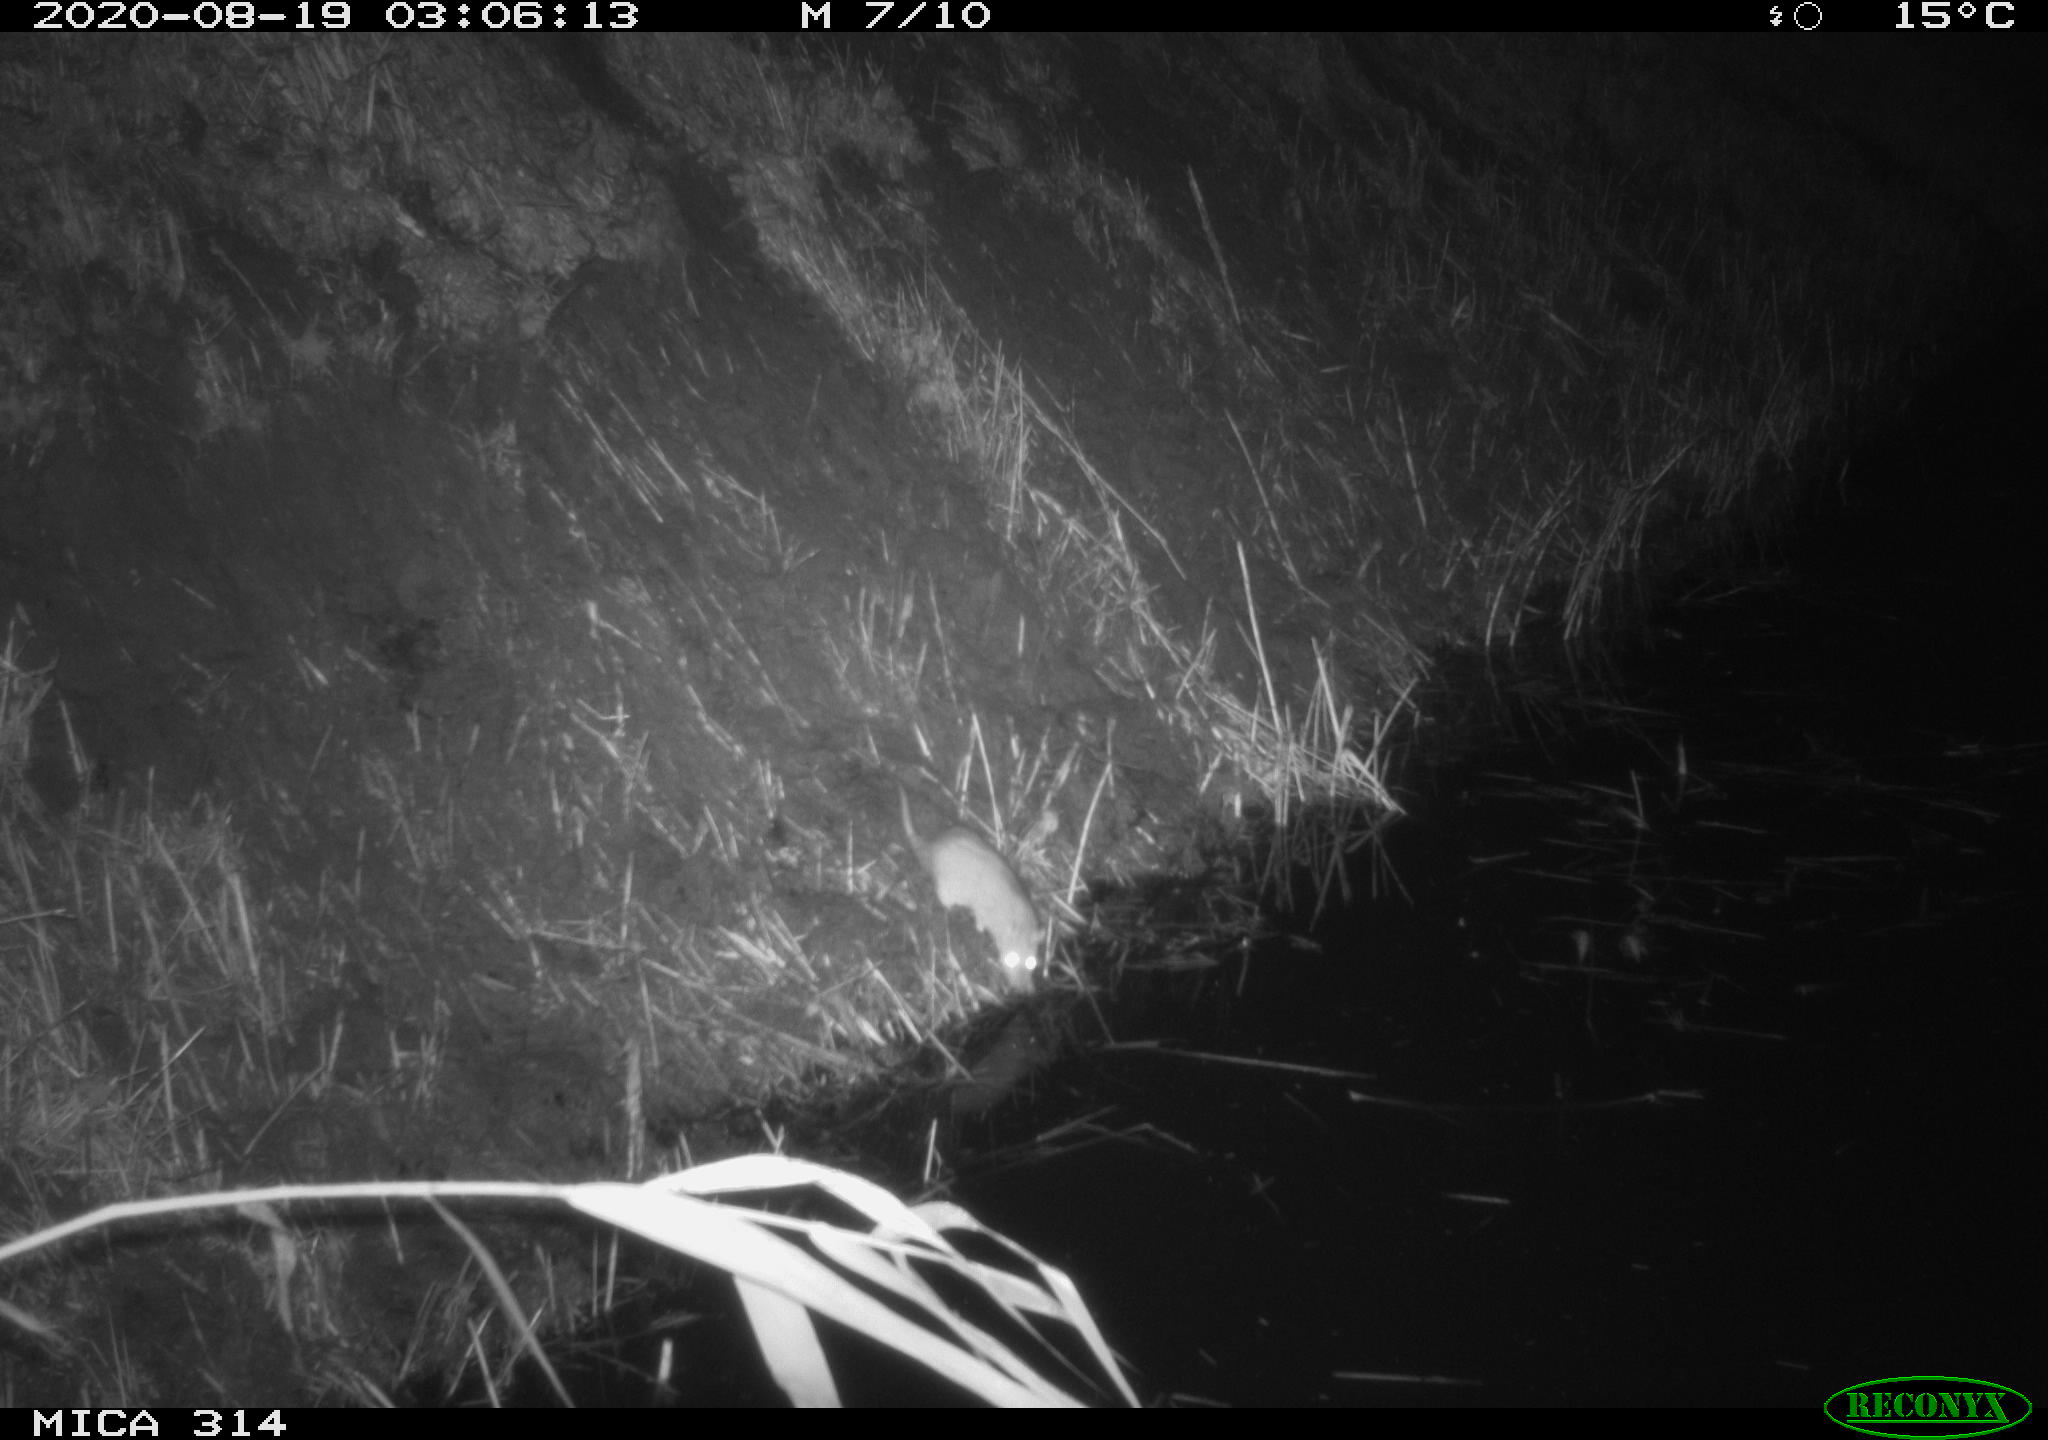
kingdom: Animalia
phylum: Chordata
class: Mammalia
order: Rodentia
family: Muridae
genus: Rattus
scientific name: Rattus norvegicus
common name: Brown rat
